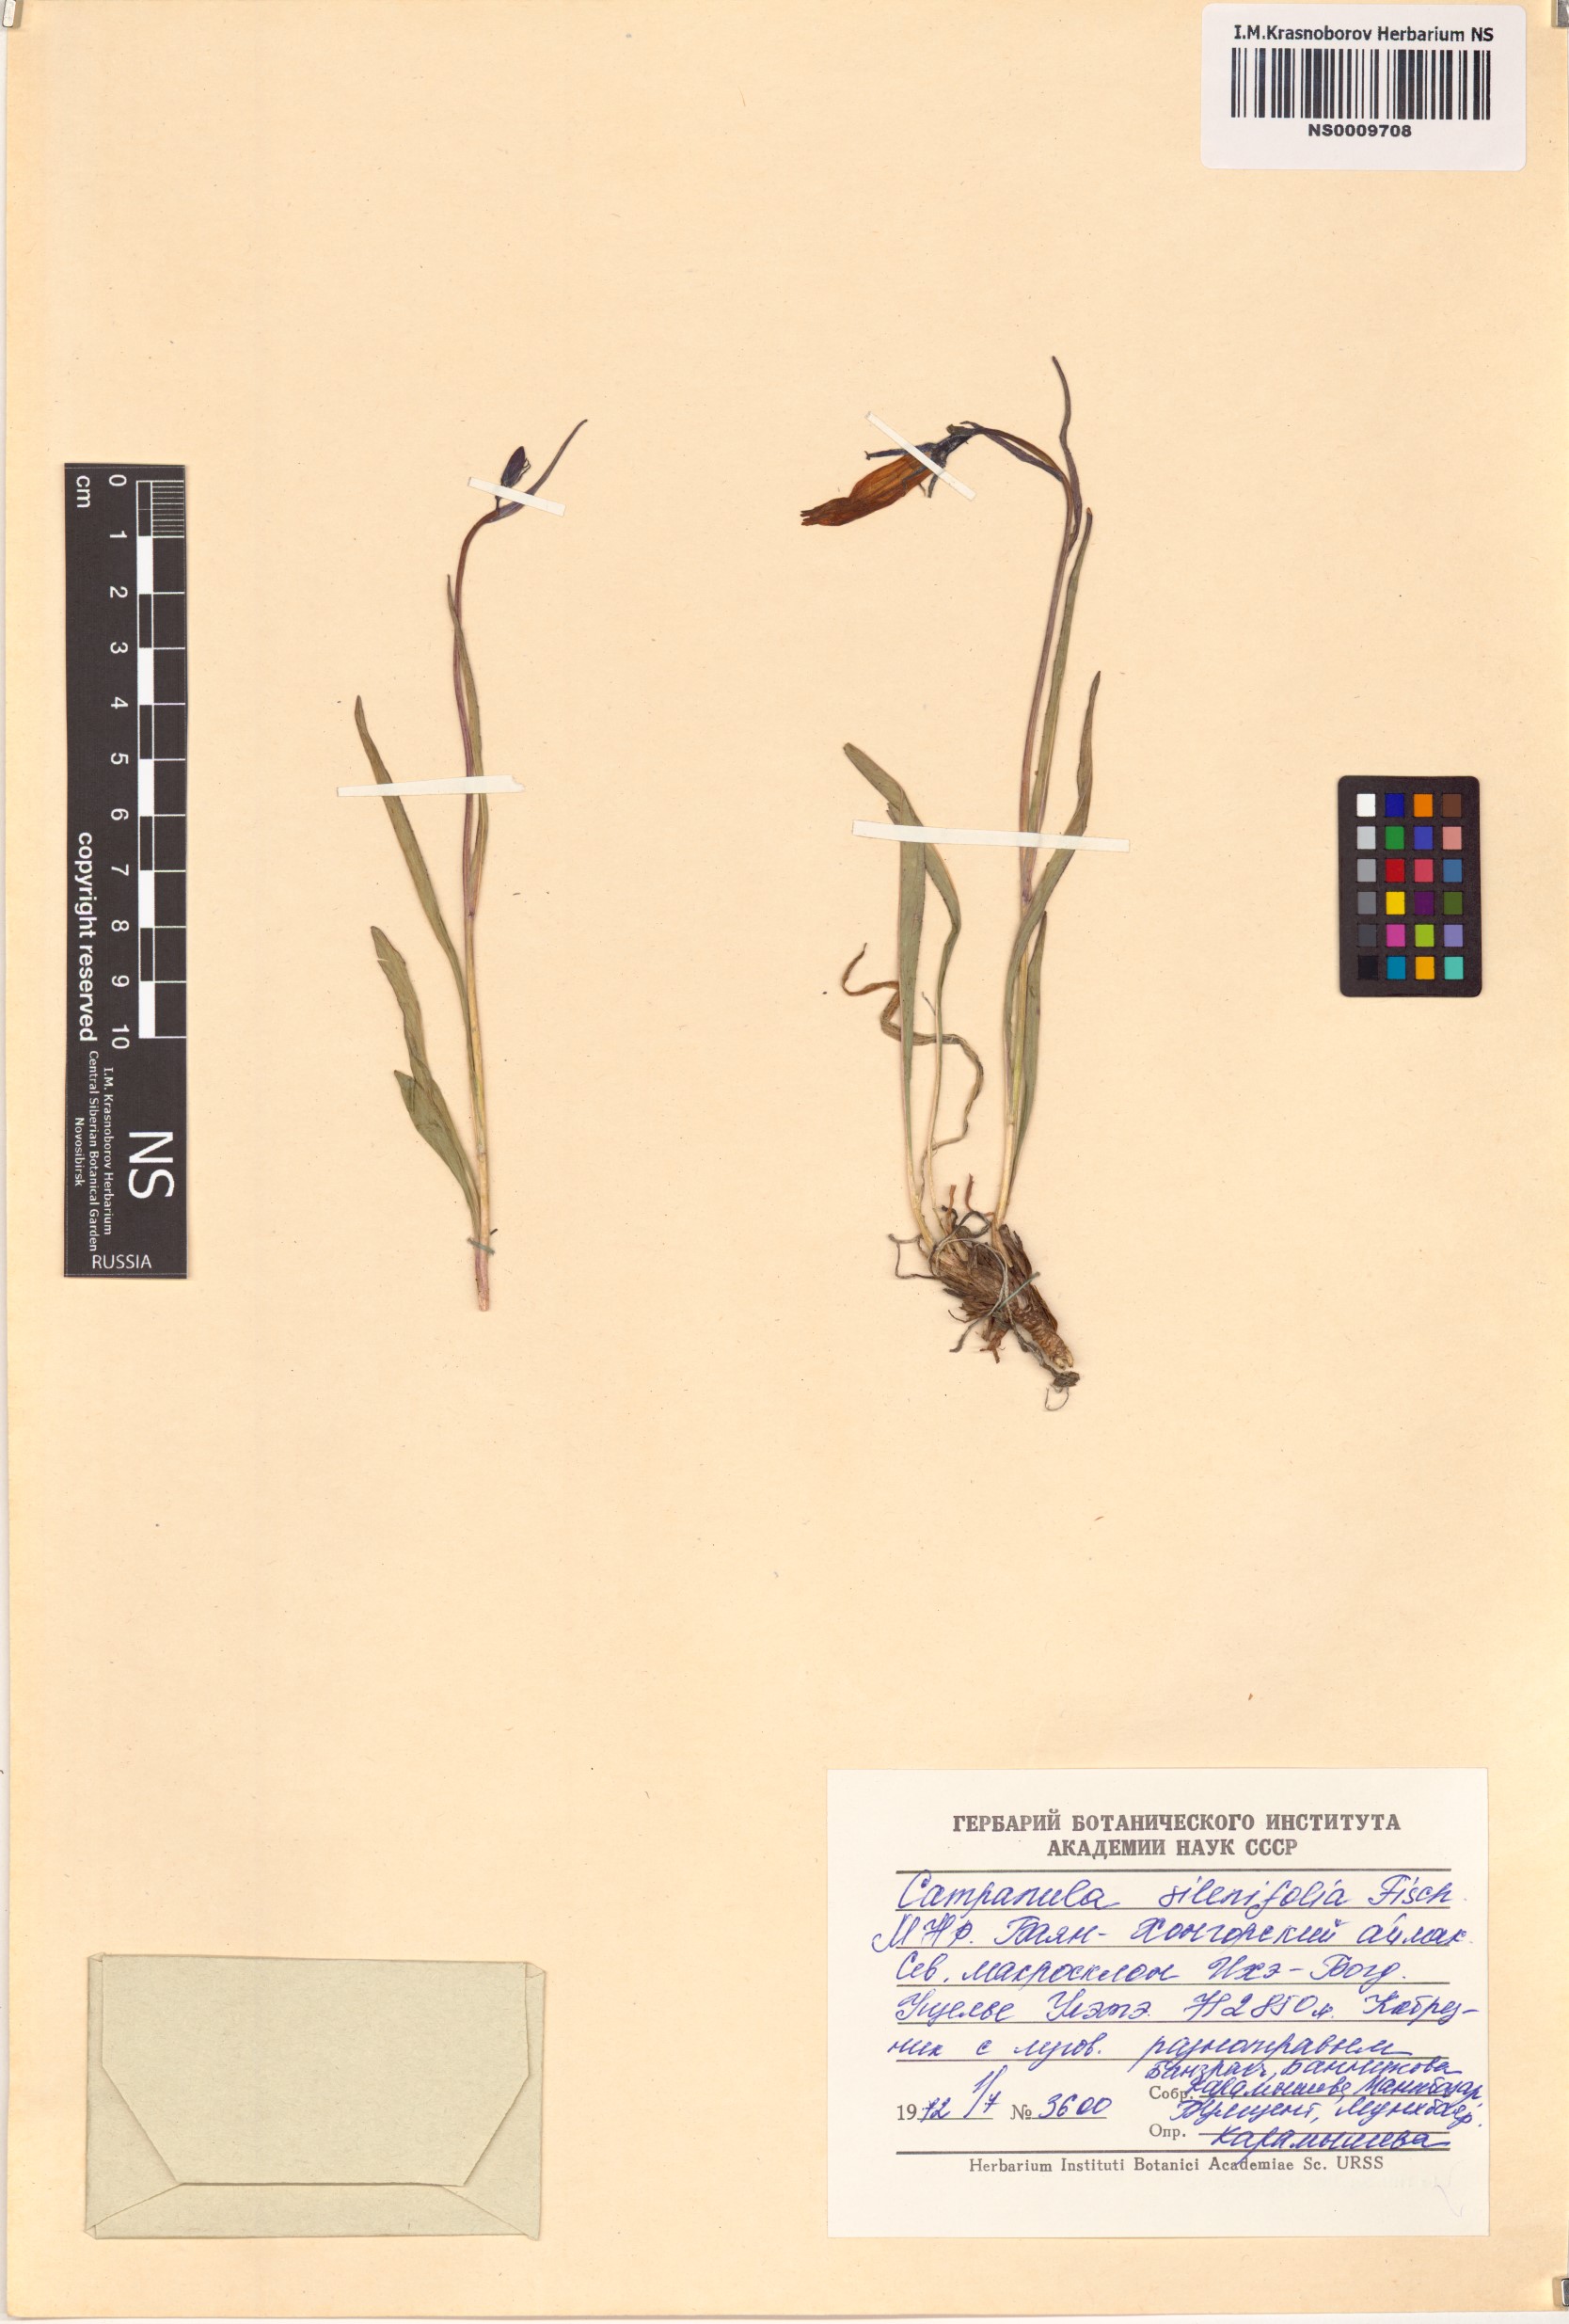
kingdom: Plantae
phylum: Tracheophyta
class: Magnoliopsida
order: Asterales
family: Campanulaceae
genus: Campanula
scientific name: Campanula stevenii
